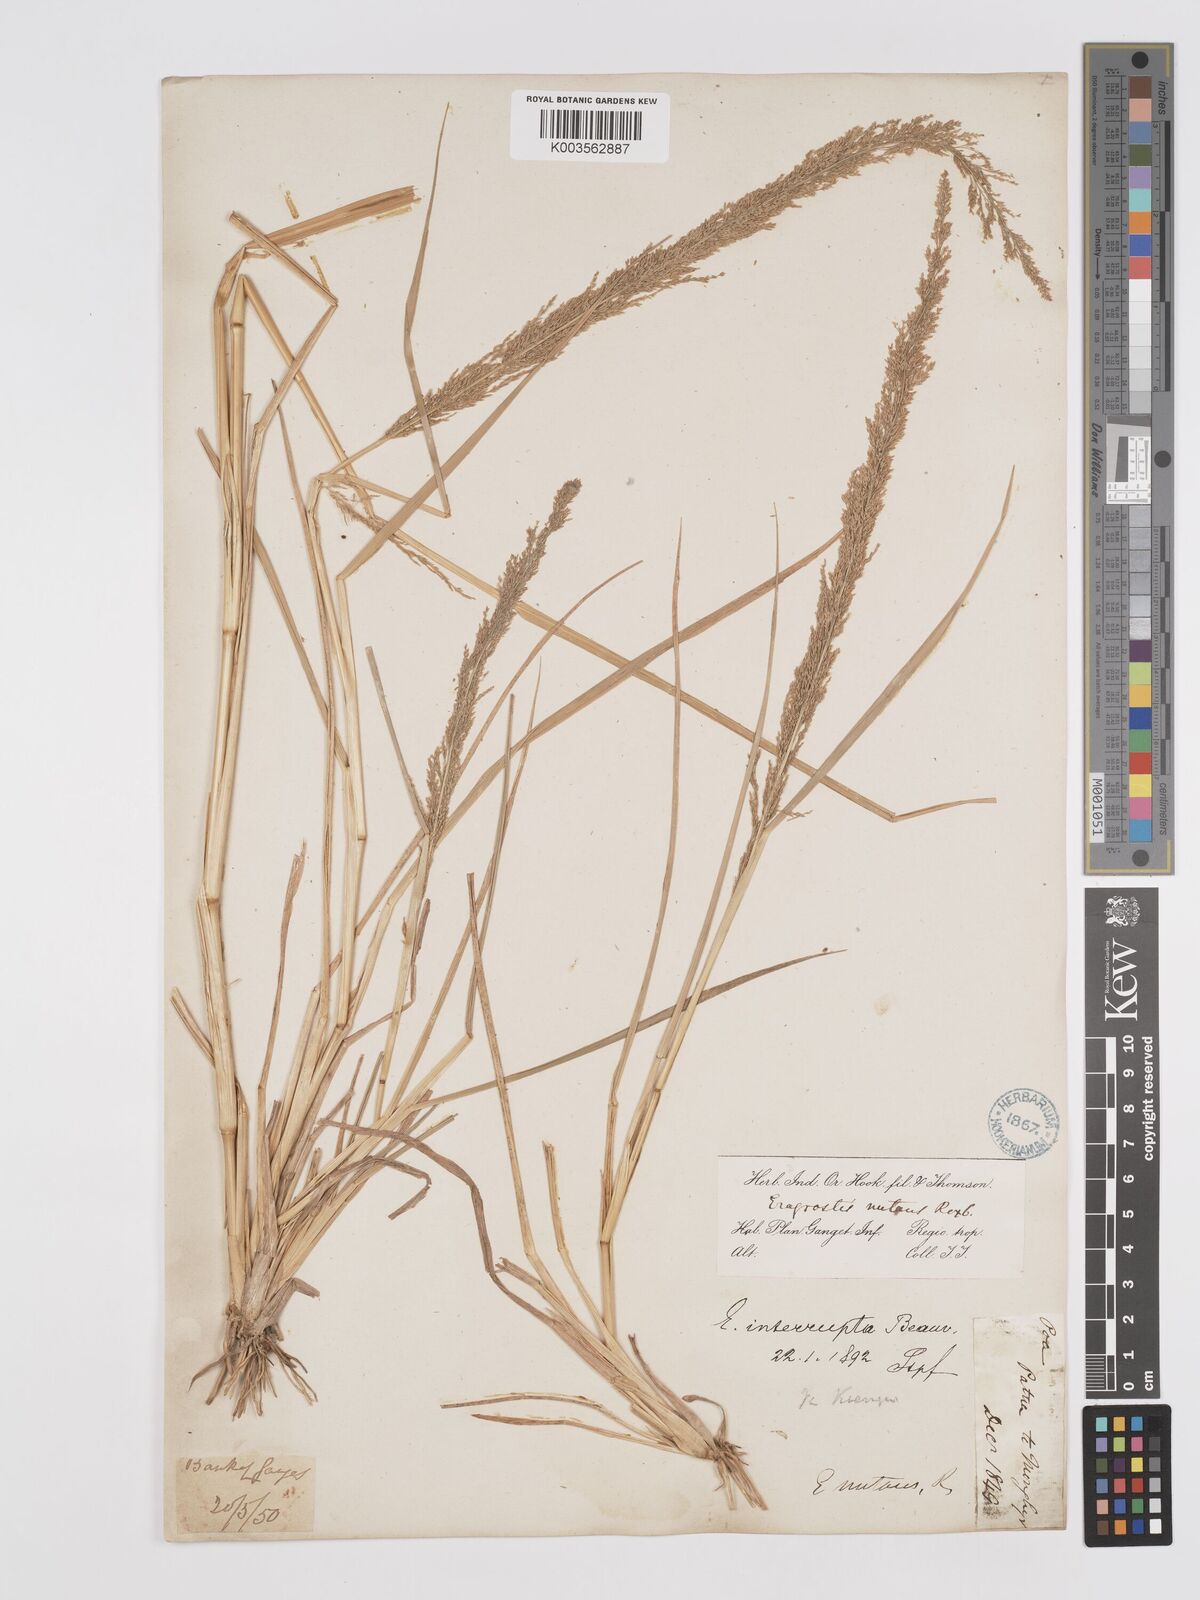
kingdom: Plantae
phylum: Tracheophyta
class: Liliopsida
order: Poales
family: Poaceae
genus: Eragrostis
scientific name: Eragrostis japonica
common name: Pond lovegrass
